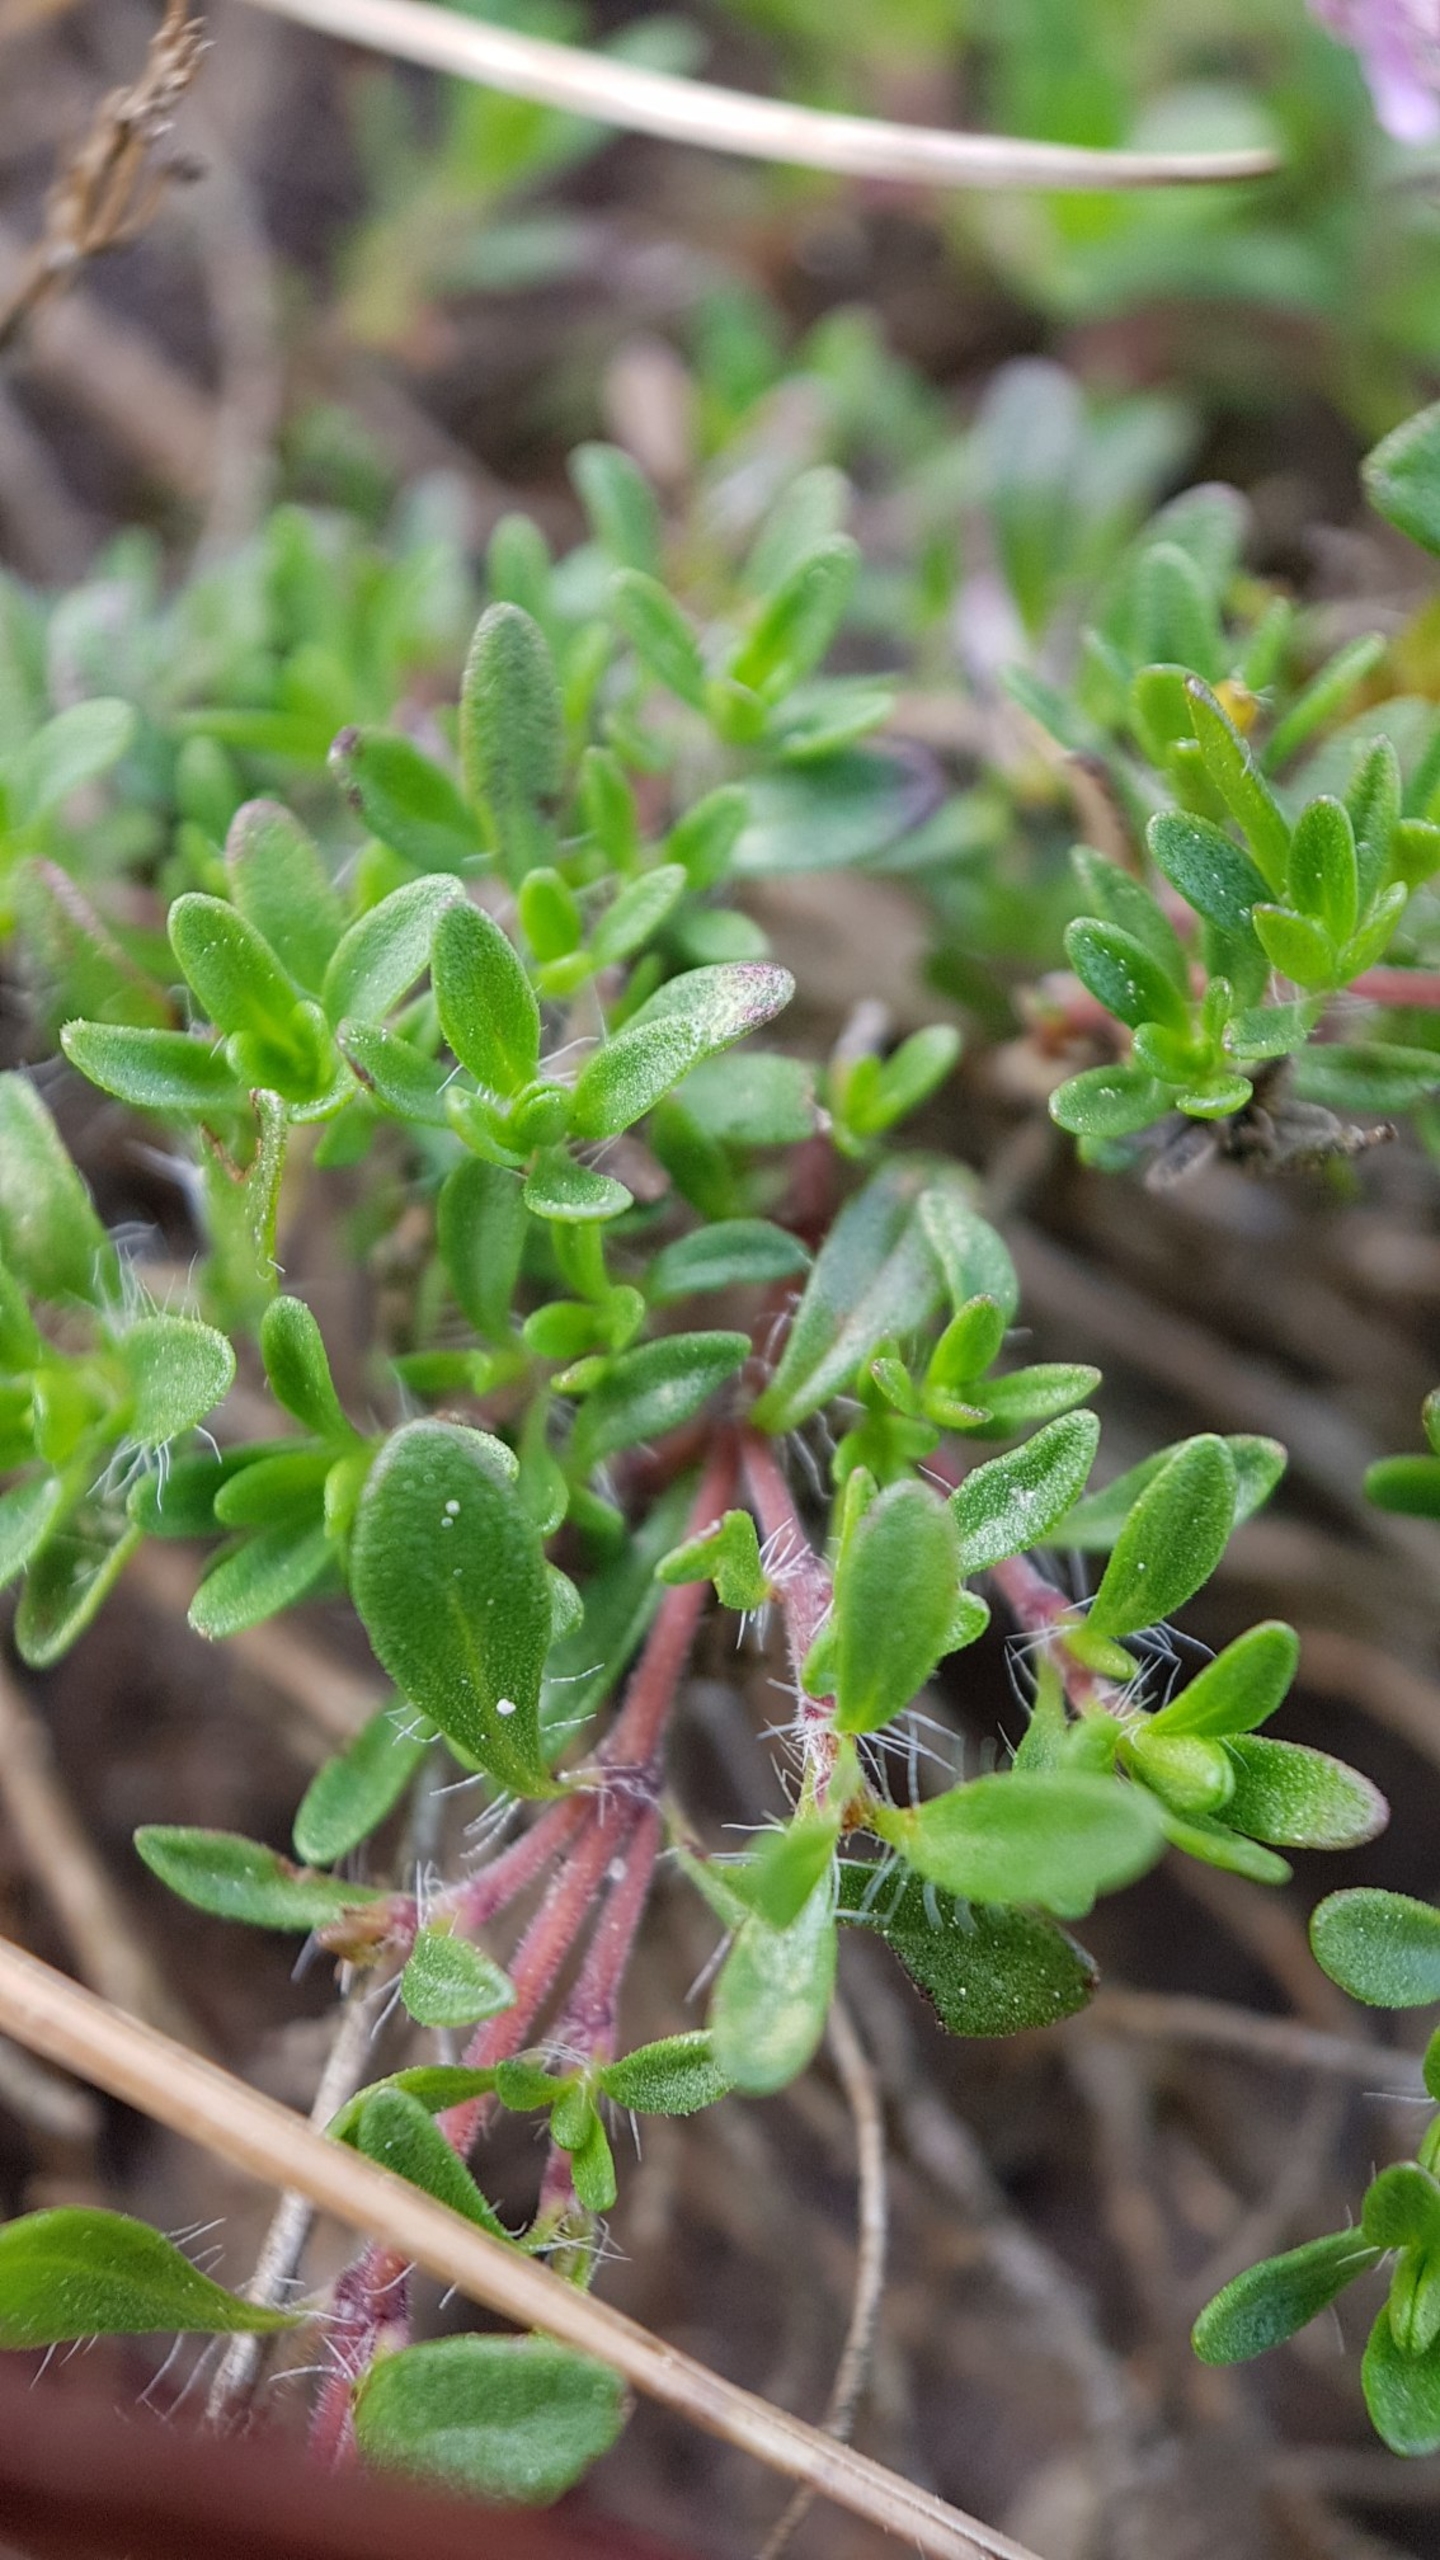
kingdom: Plantae
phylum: Tracheophyta
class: Magnoliopsida
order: Lamiales
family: Lamiaceae
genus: Thymus
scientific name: Thymus serpyllum
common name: Smalbladet timian
